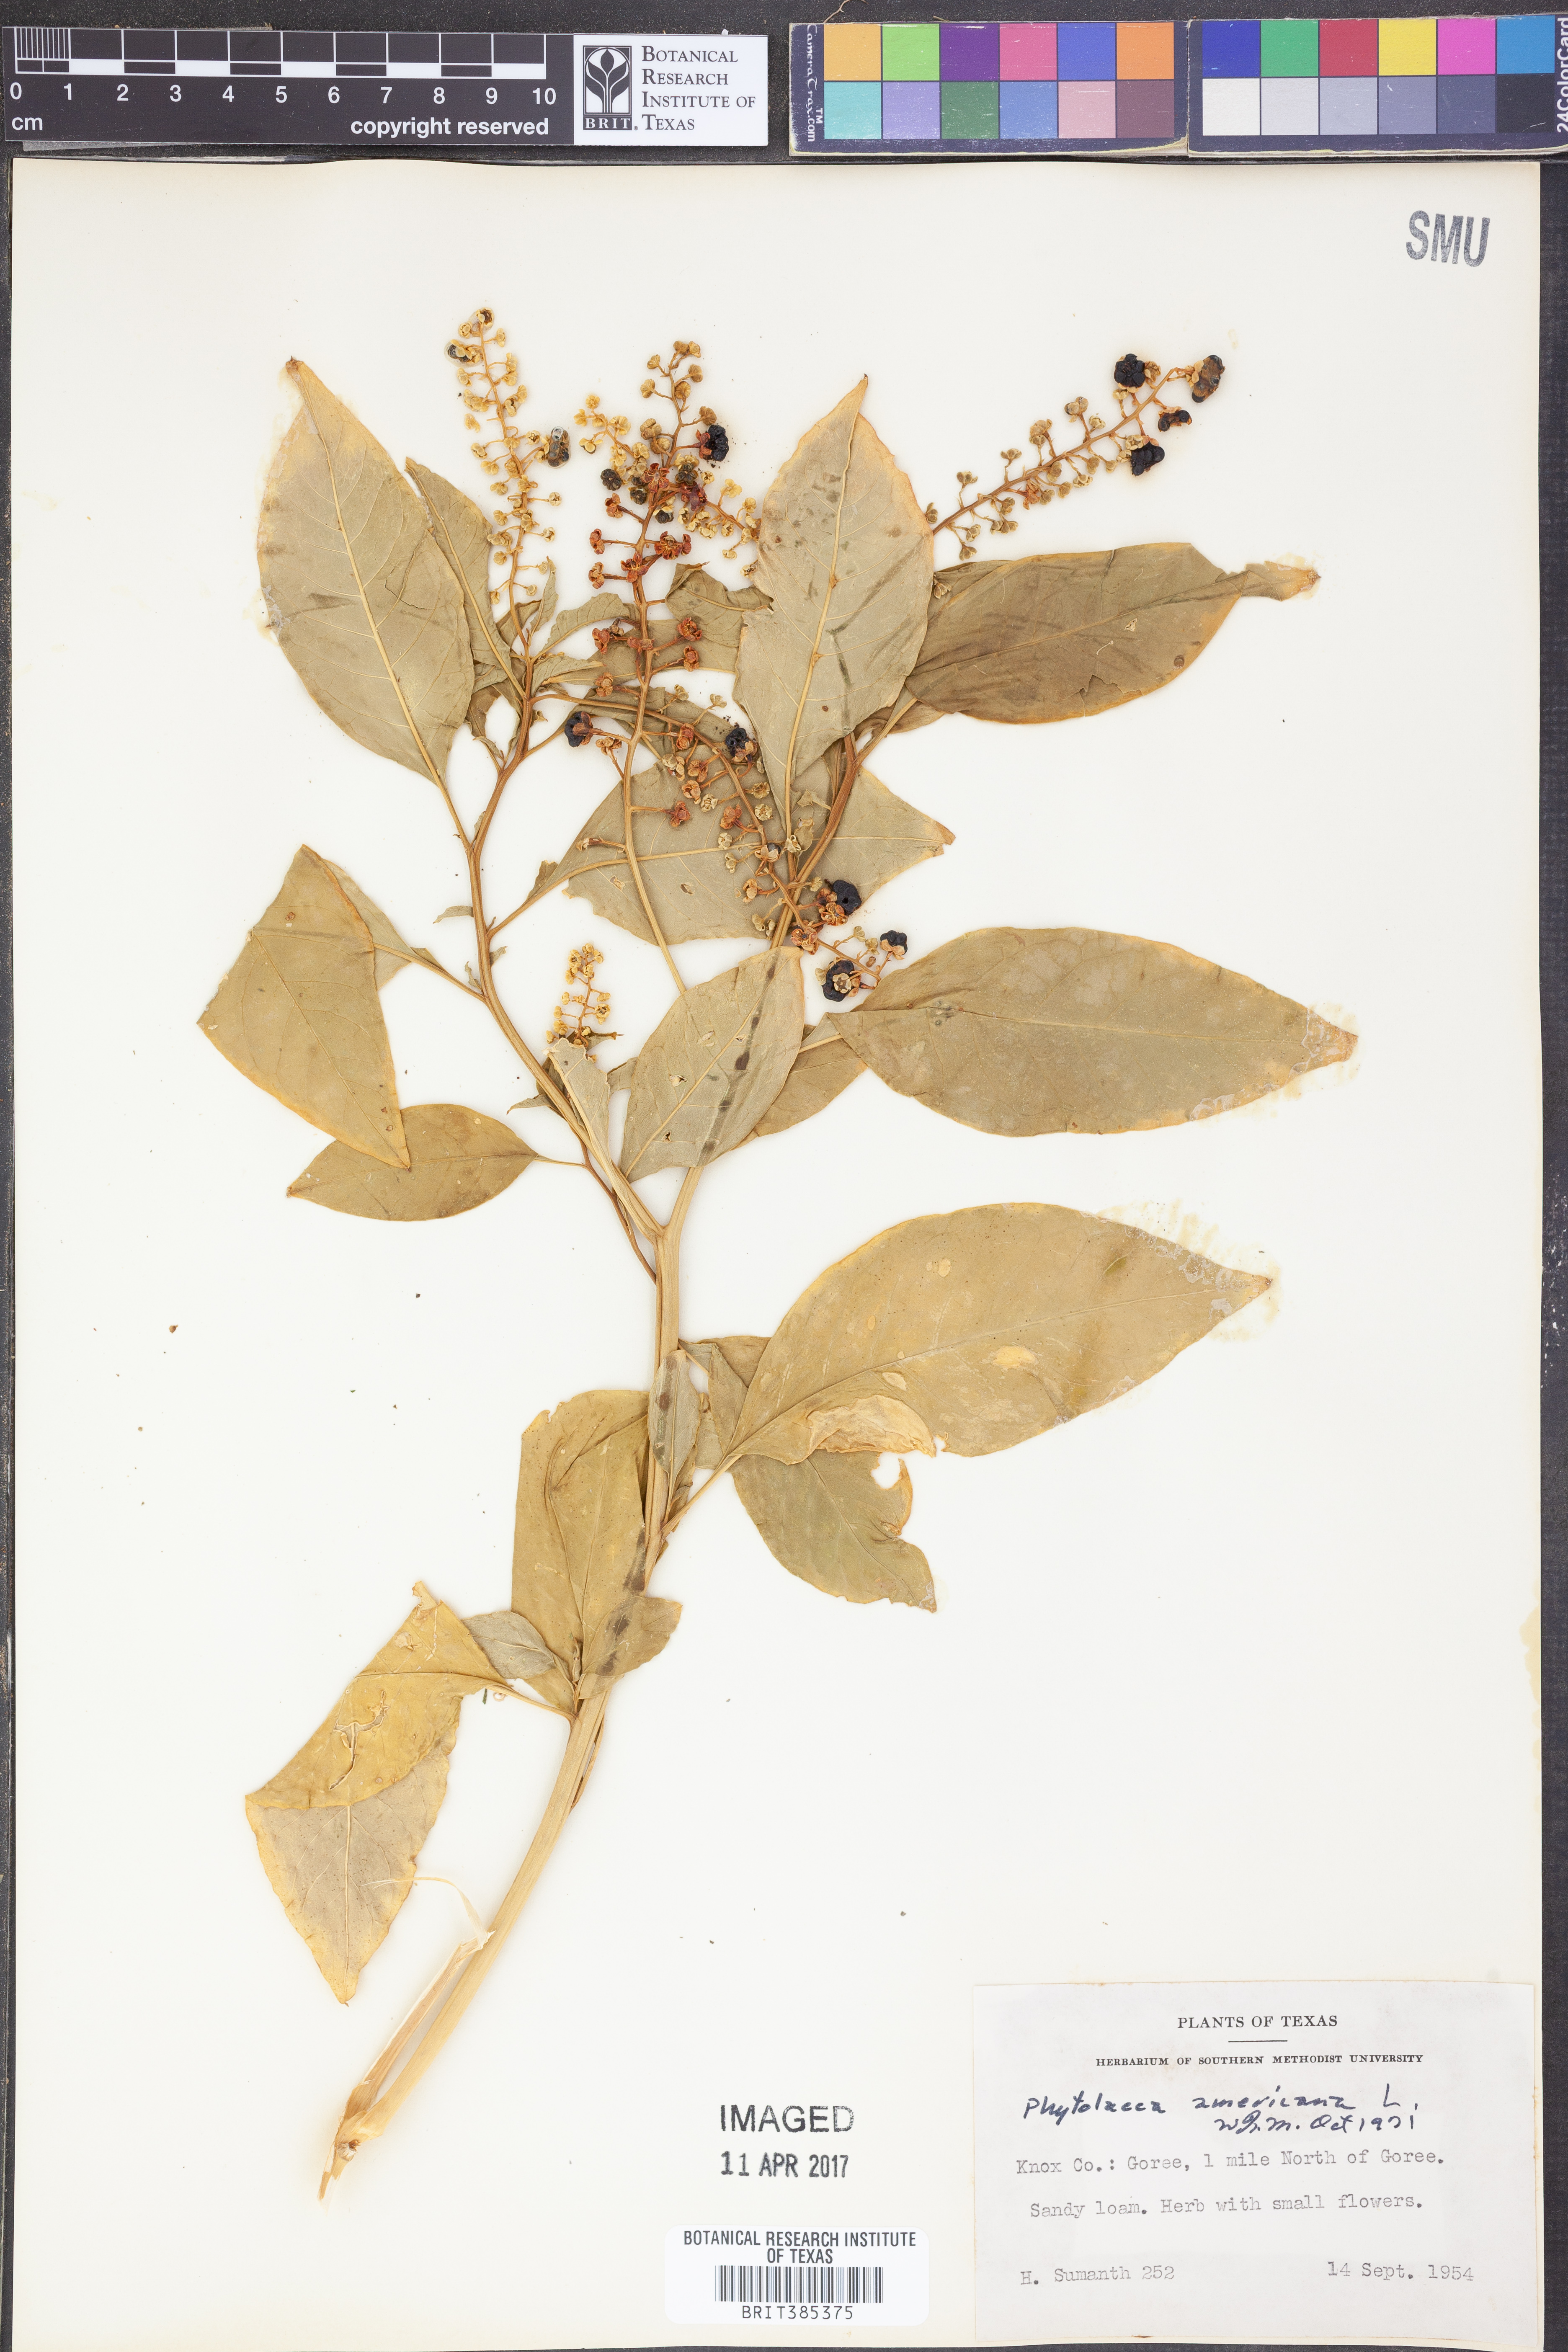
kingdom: Plantae
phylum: Tracheophyta
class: Magnoliopsida
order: Caryophyllales
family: Phytolaccaceae
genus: Phytolacca
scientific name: Phytolacca americana
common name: American pokeweed
